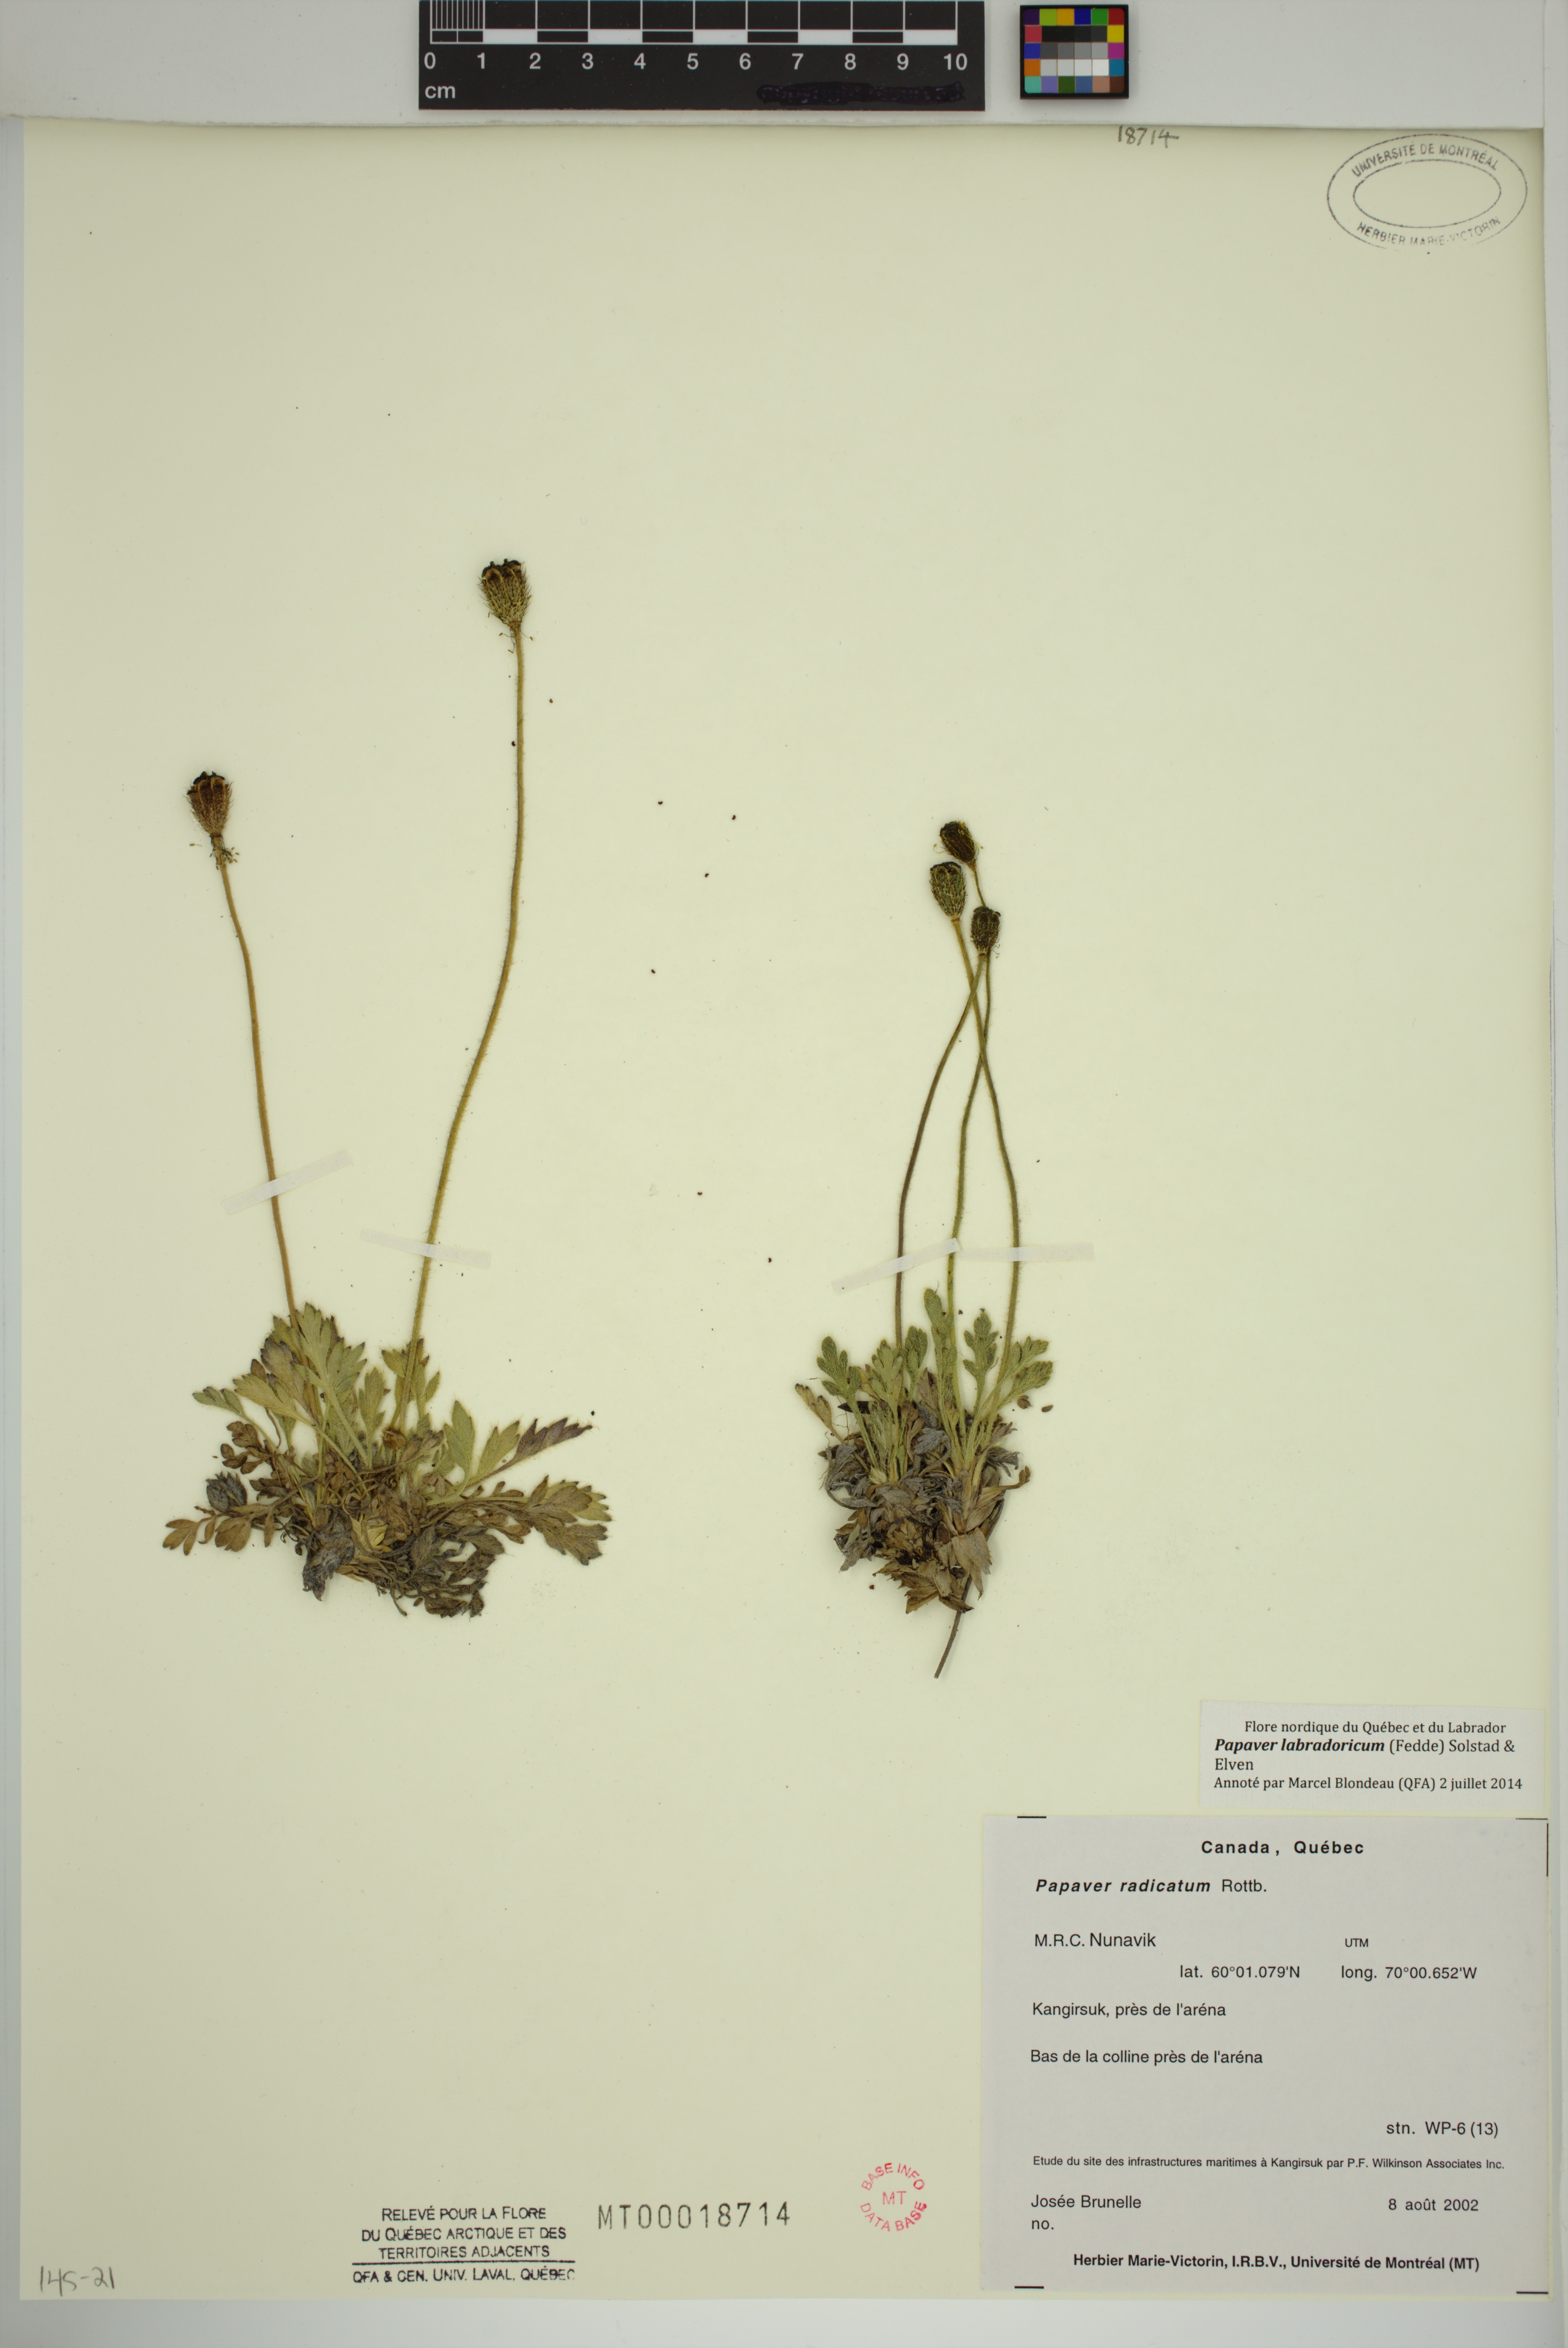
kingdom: Plantae
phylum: Tracheophyta
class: Magnoliopsida
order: Ranunculales
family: Papaveraceae
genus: Papaver
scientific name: Papaver radicatum
